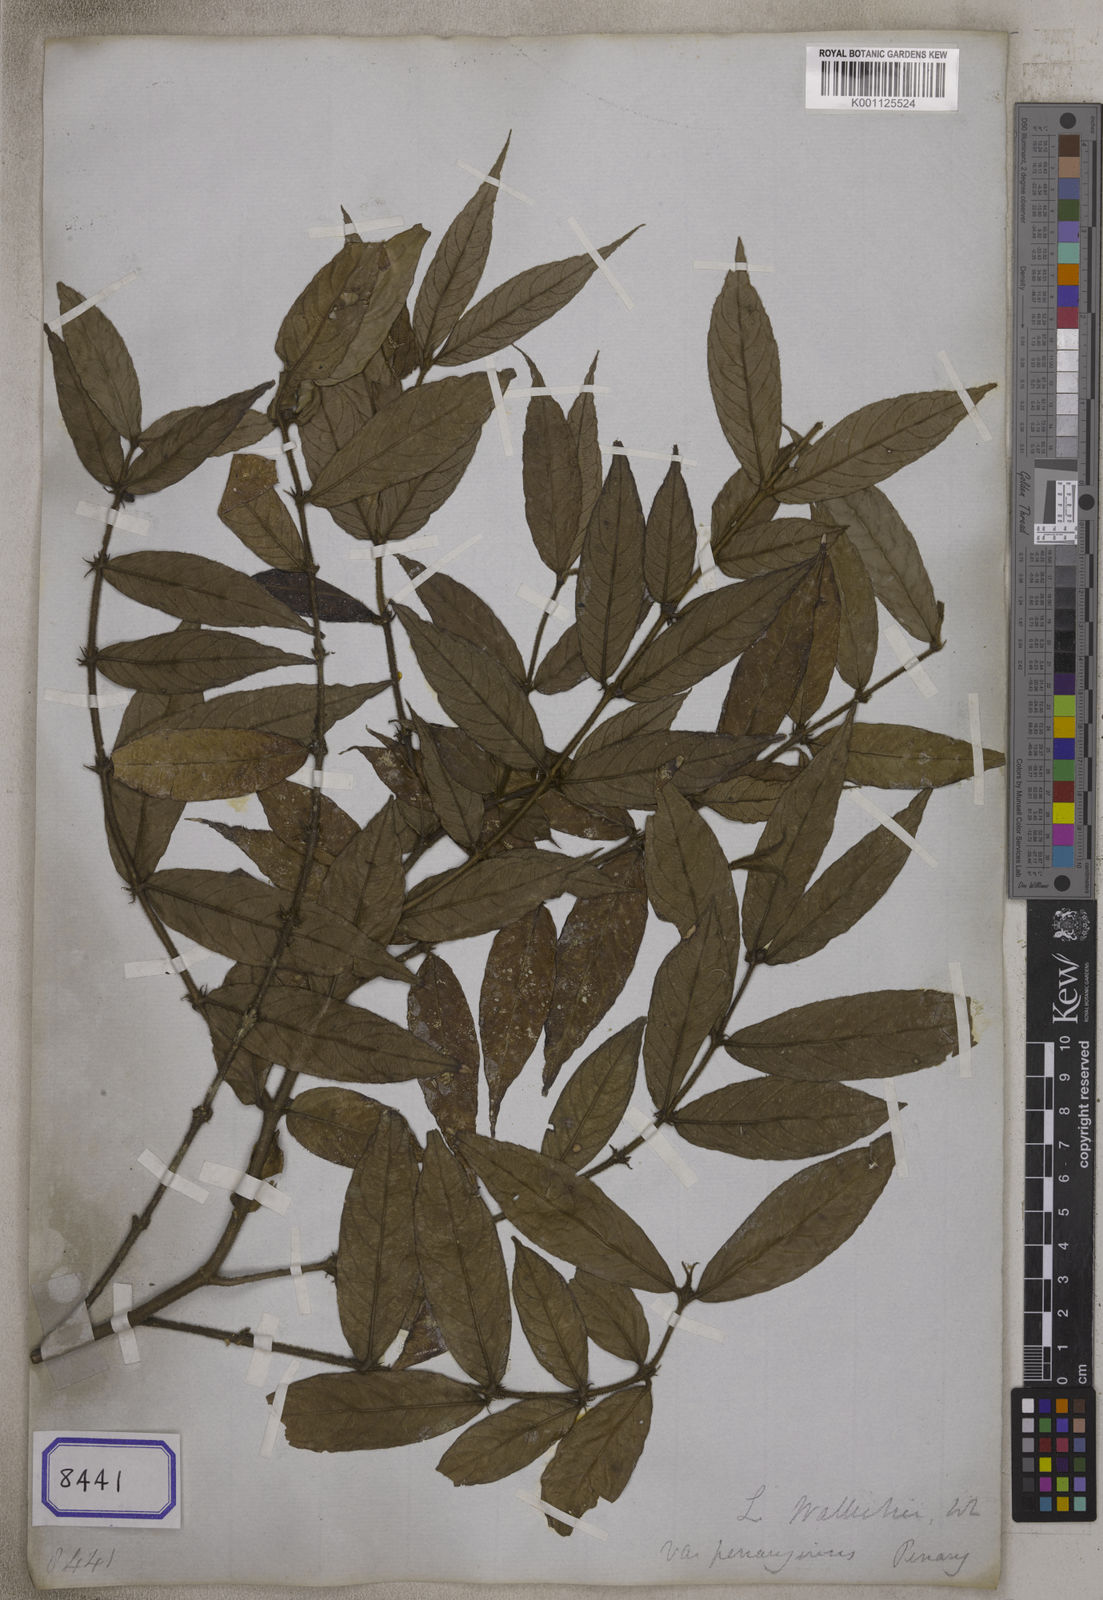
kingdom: Plantae
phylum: Tracheophyta
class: Magnoliopsida
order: Gentianales
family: Rubiaceae
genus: Lasianthus
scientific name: Lasianthus
